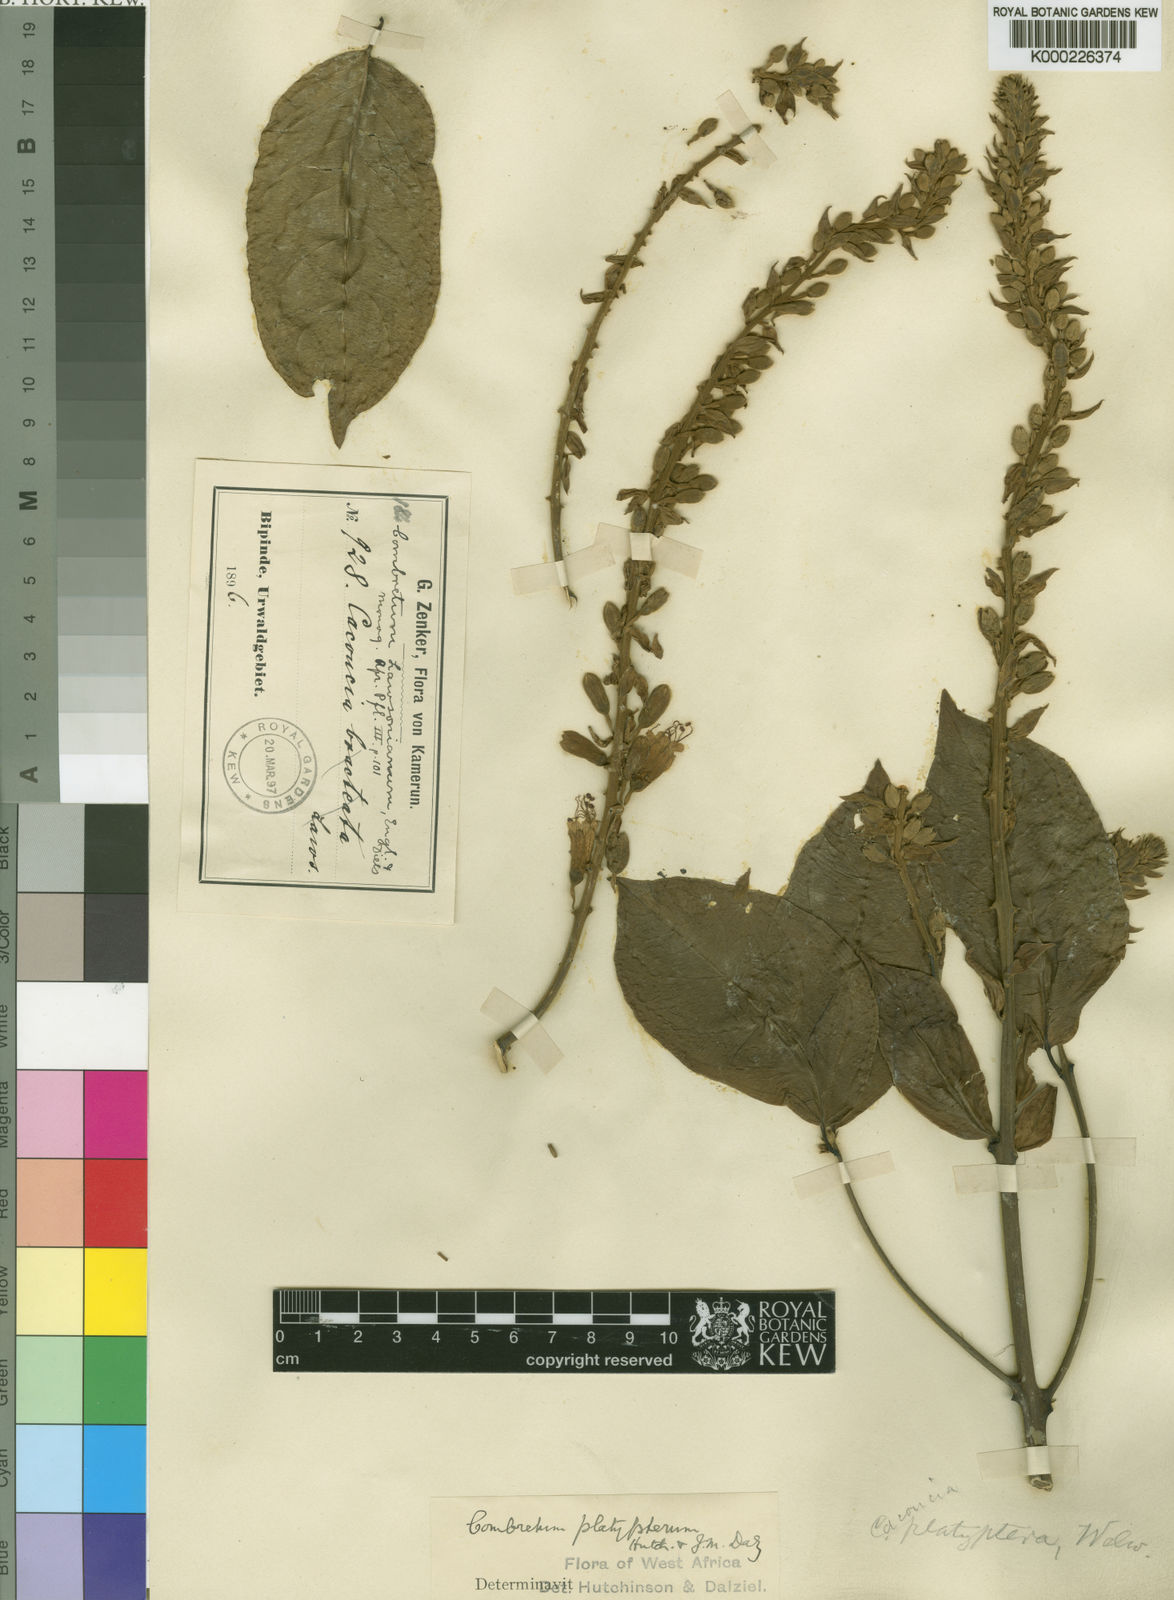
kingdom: Plantae
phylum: Tracheophyta
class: Magnoliopsida
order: Myrtales
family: Combretaceae
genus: Combretum
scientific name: Combretum platypterum
